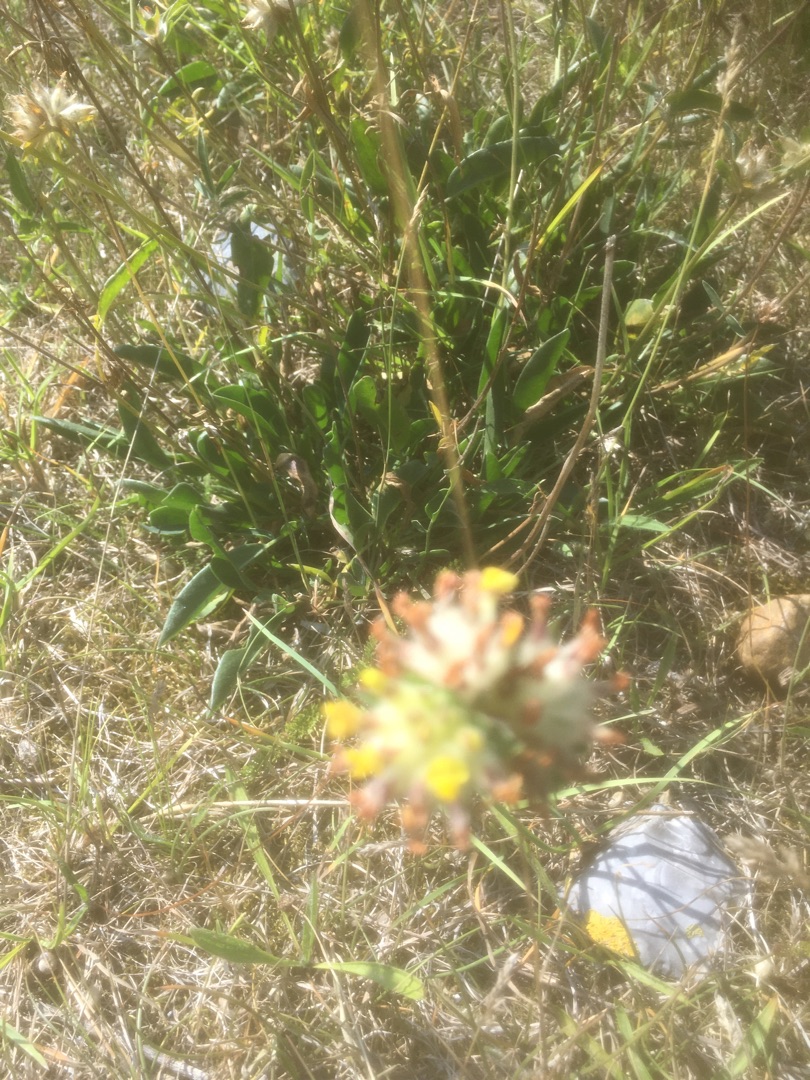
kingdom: Plantae
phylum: Tracheophyta
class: Magnoliopsida
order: Fabales
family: Fabaceae
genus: Anthyllis
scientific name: Anthyllis vulneraria
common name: Rundbælg
